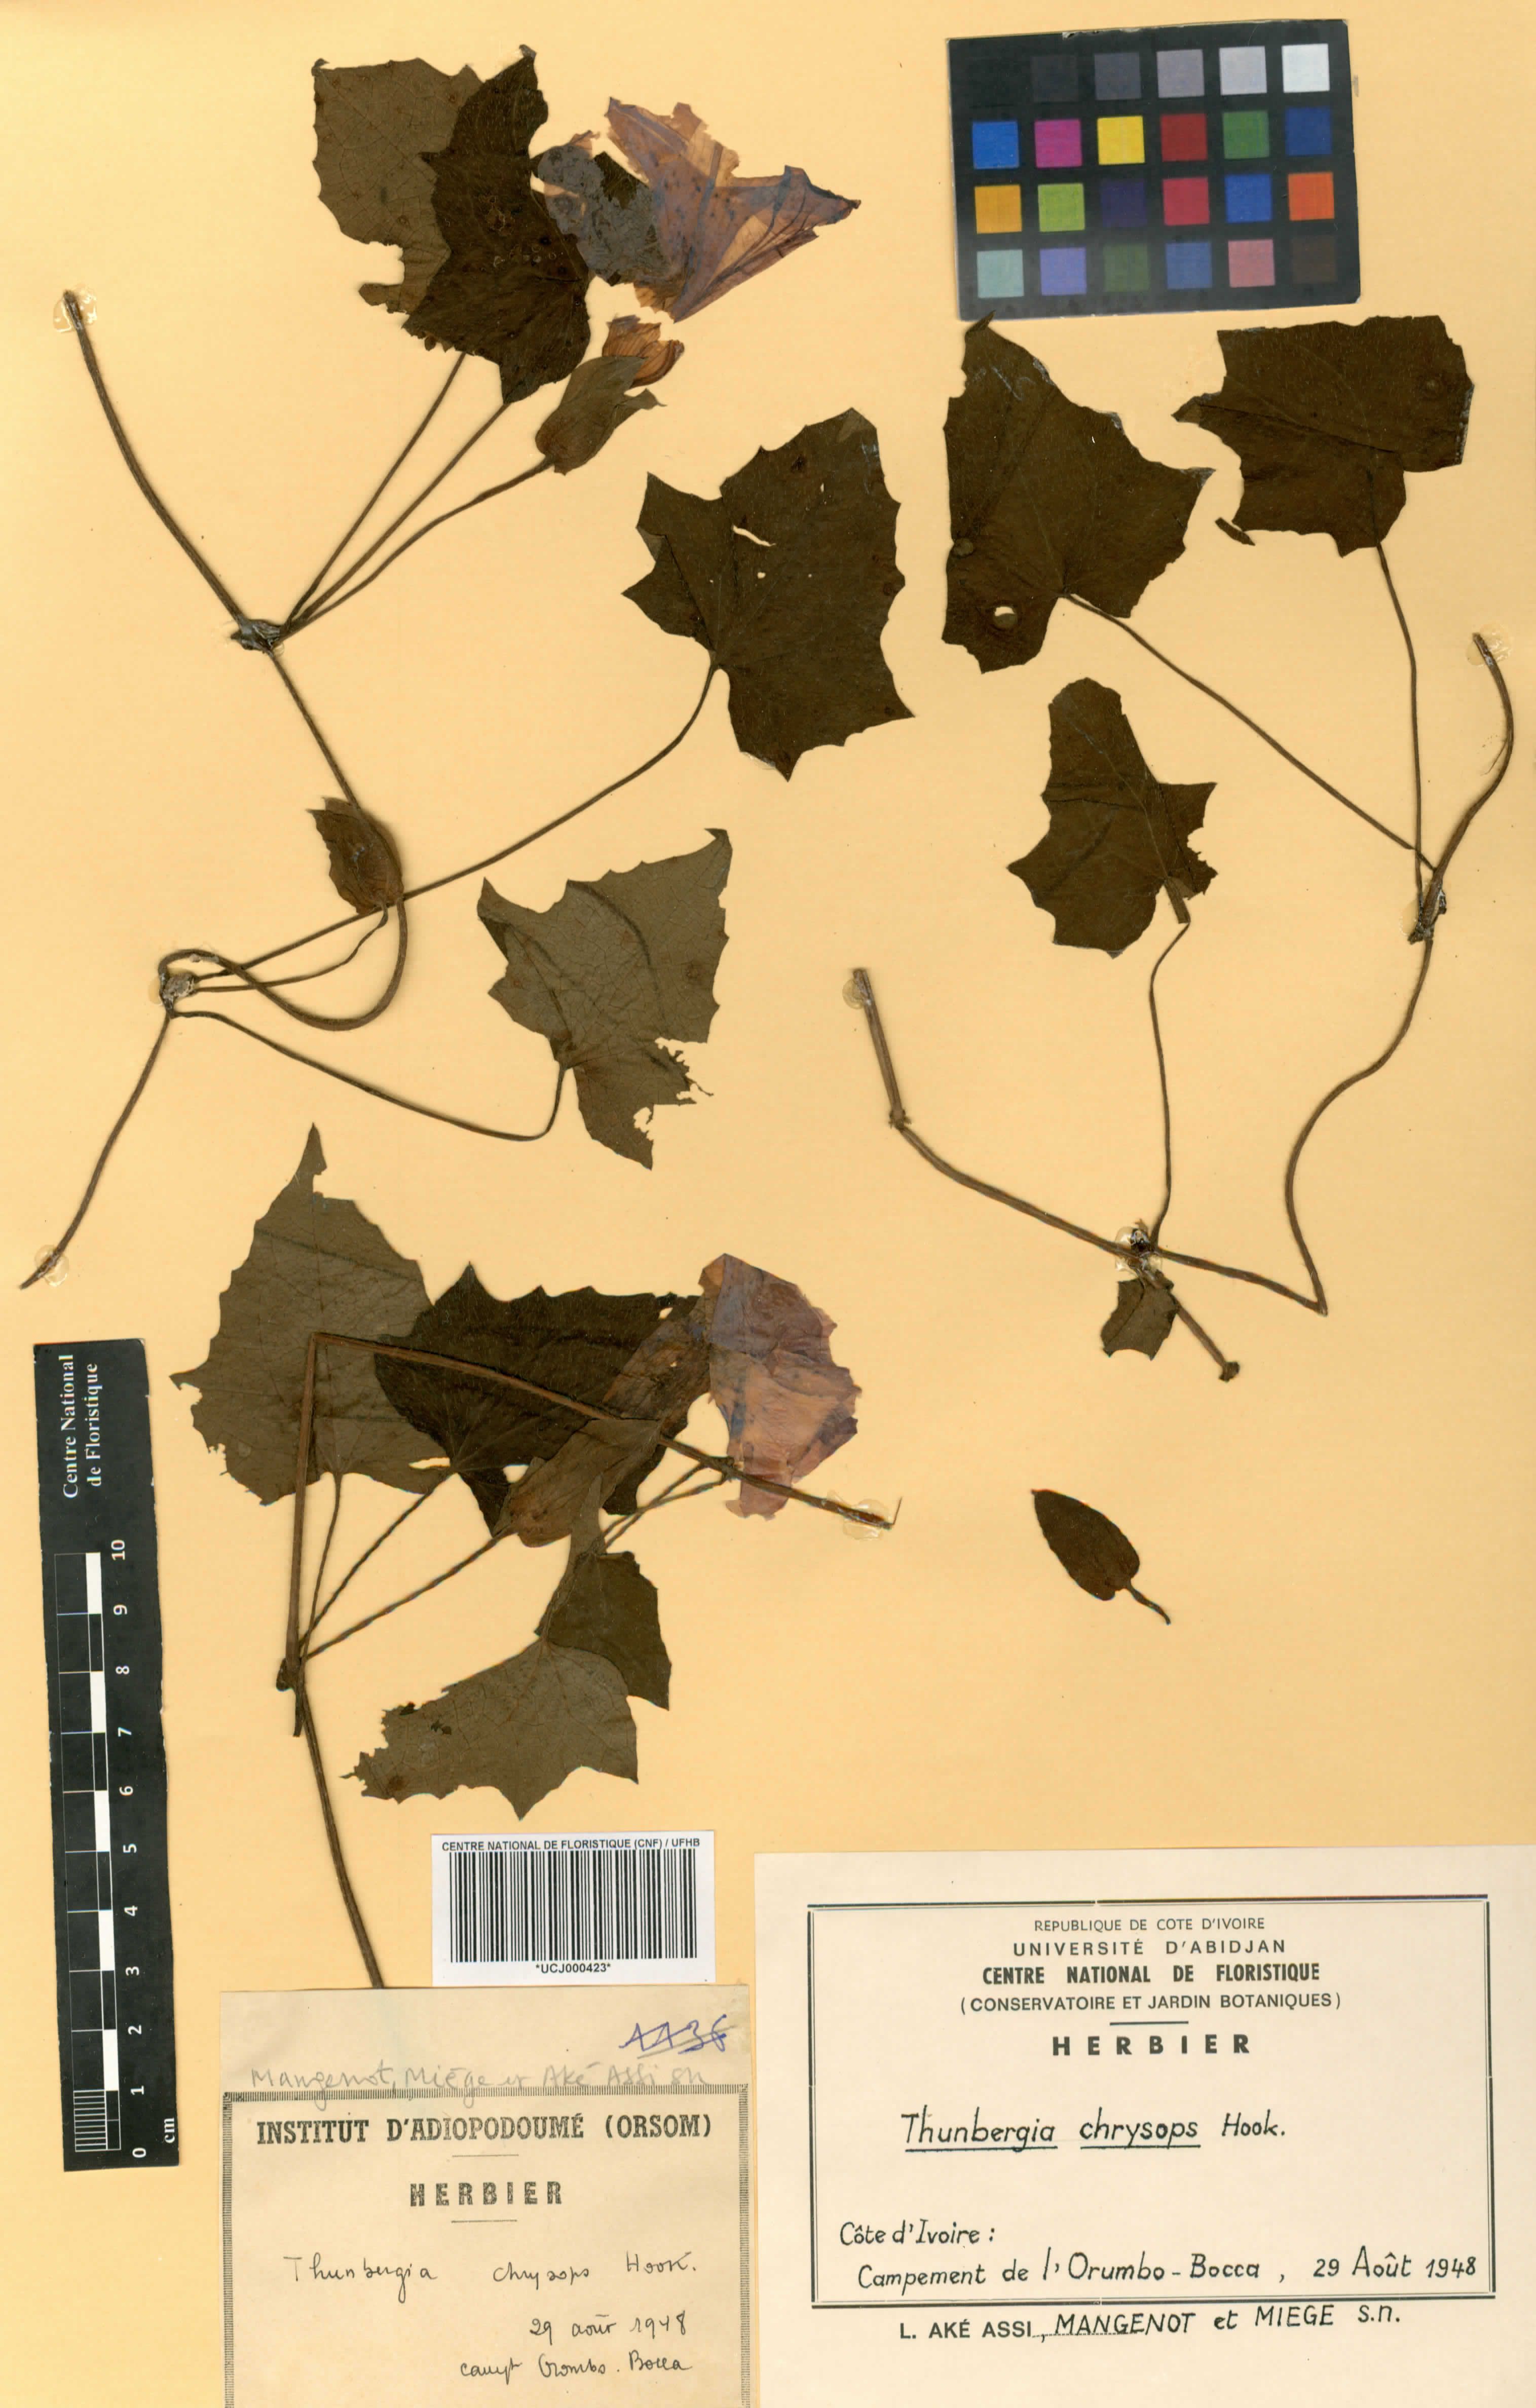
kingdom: Plantae
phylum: Tracheophyta
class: Magnoliopsida
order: Lamiales
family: Acanthaceae
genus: Thunbergia
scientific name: Thunbergia chrysops
